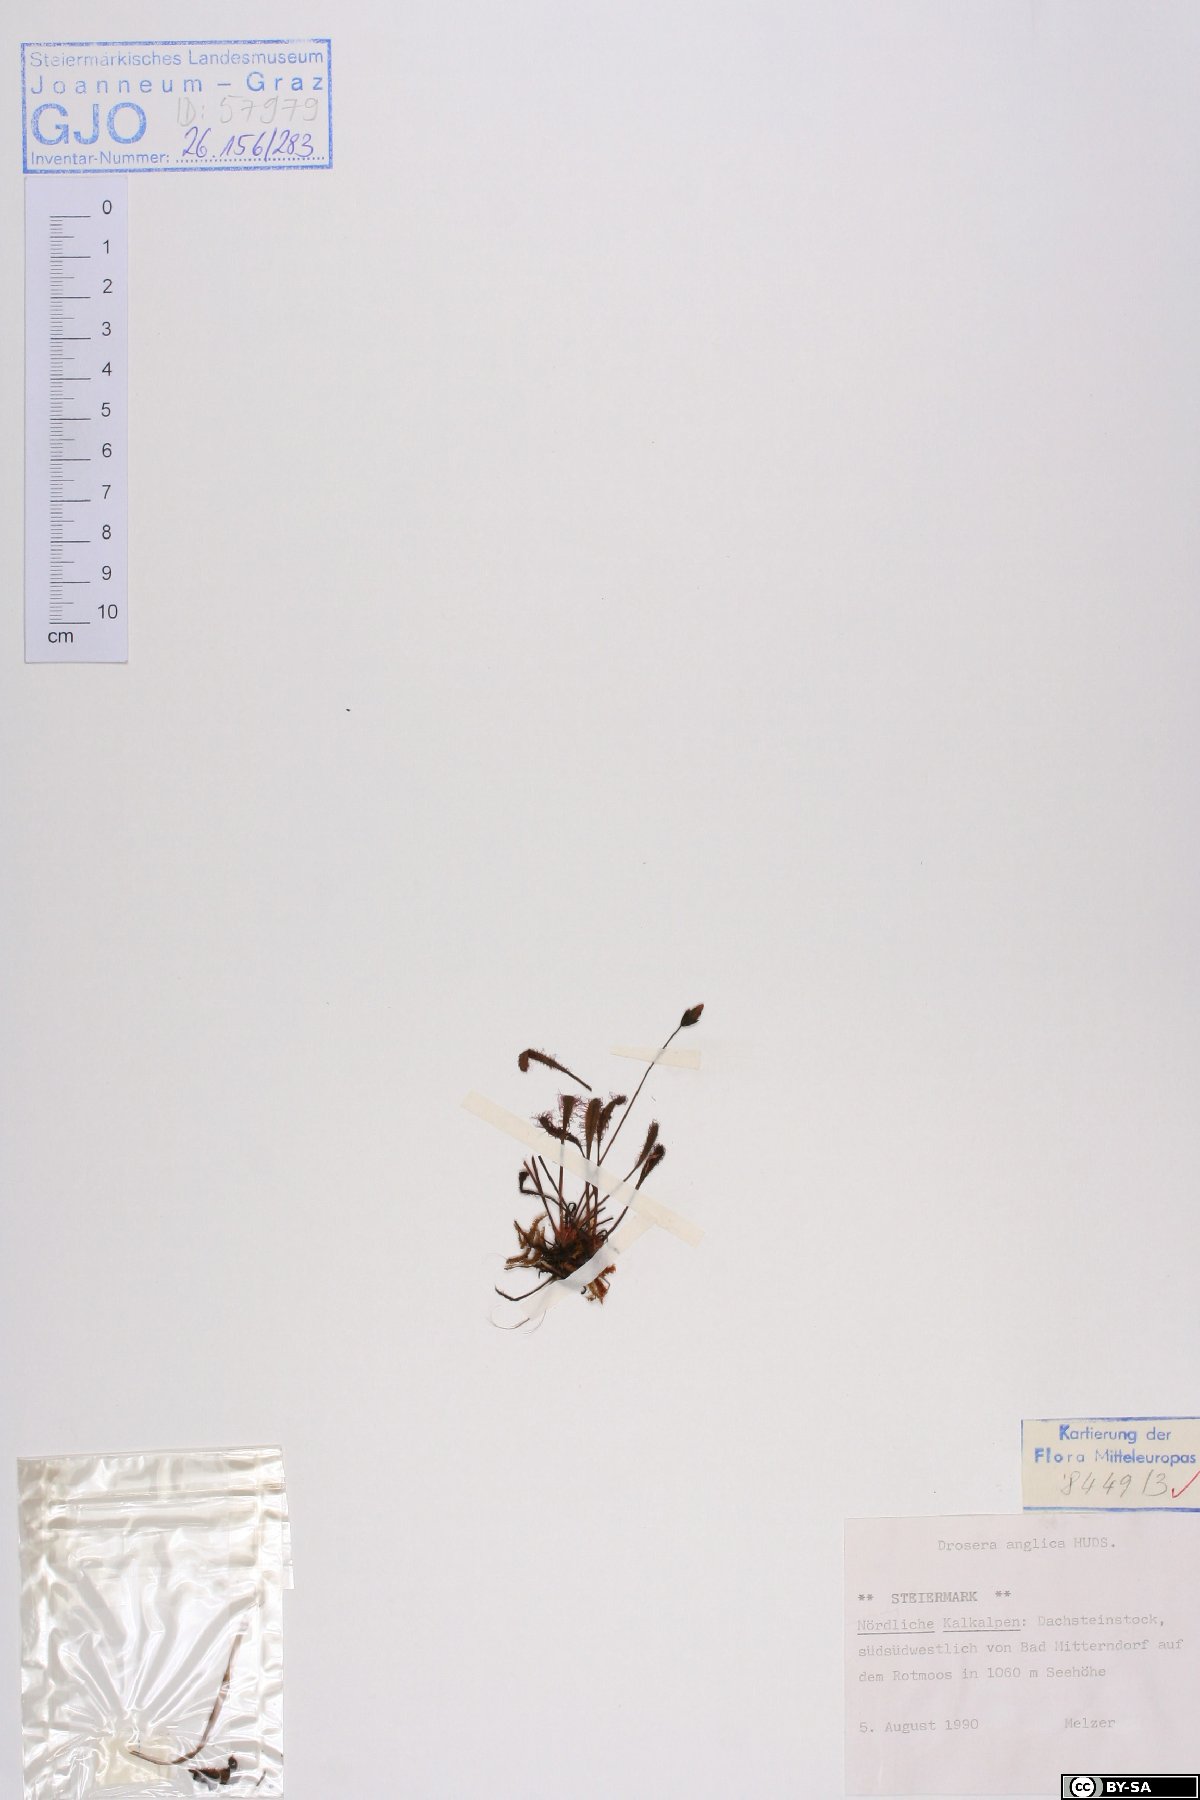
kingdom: Plantae
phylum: Tracheophyta
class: Magnoliopsida
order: Caryophyllales
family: Droseraceae
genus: Drosera
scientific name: Drosera anglica
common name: Great sundew
